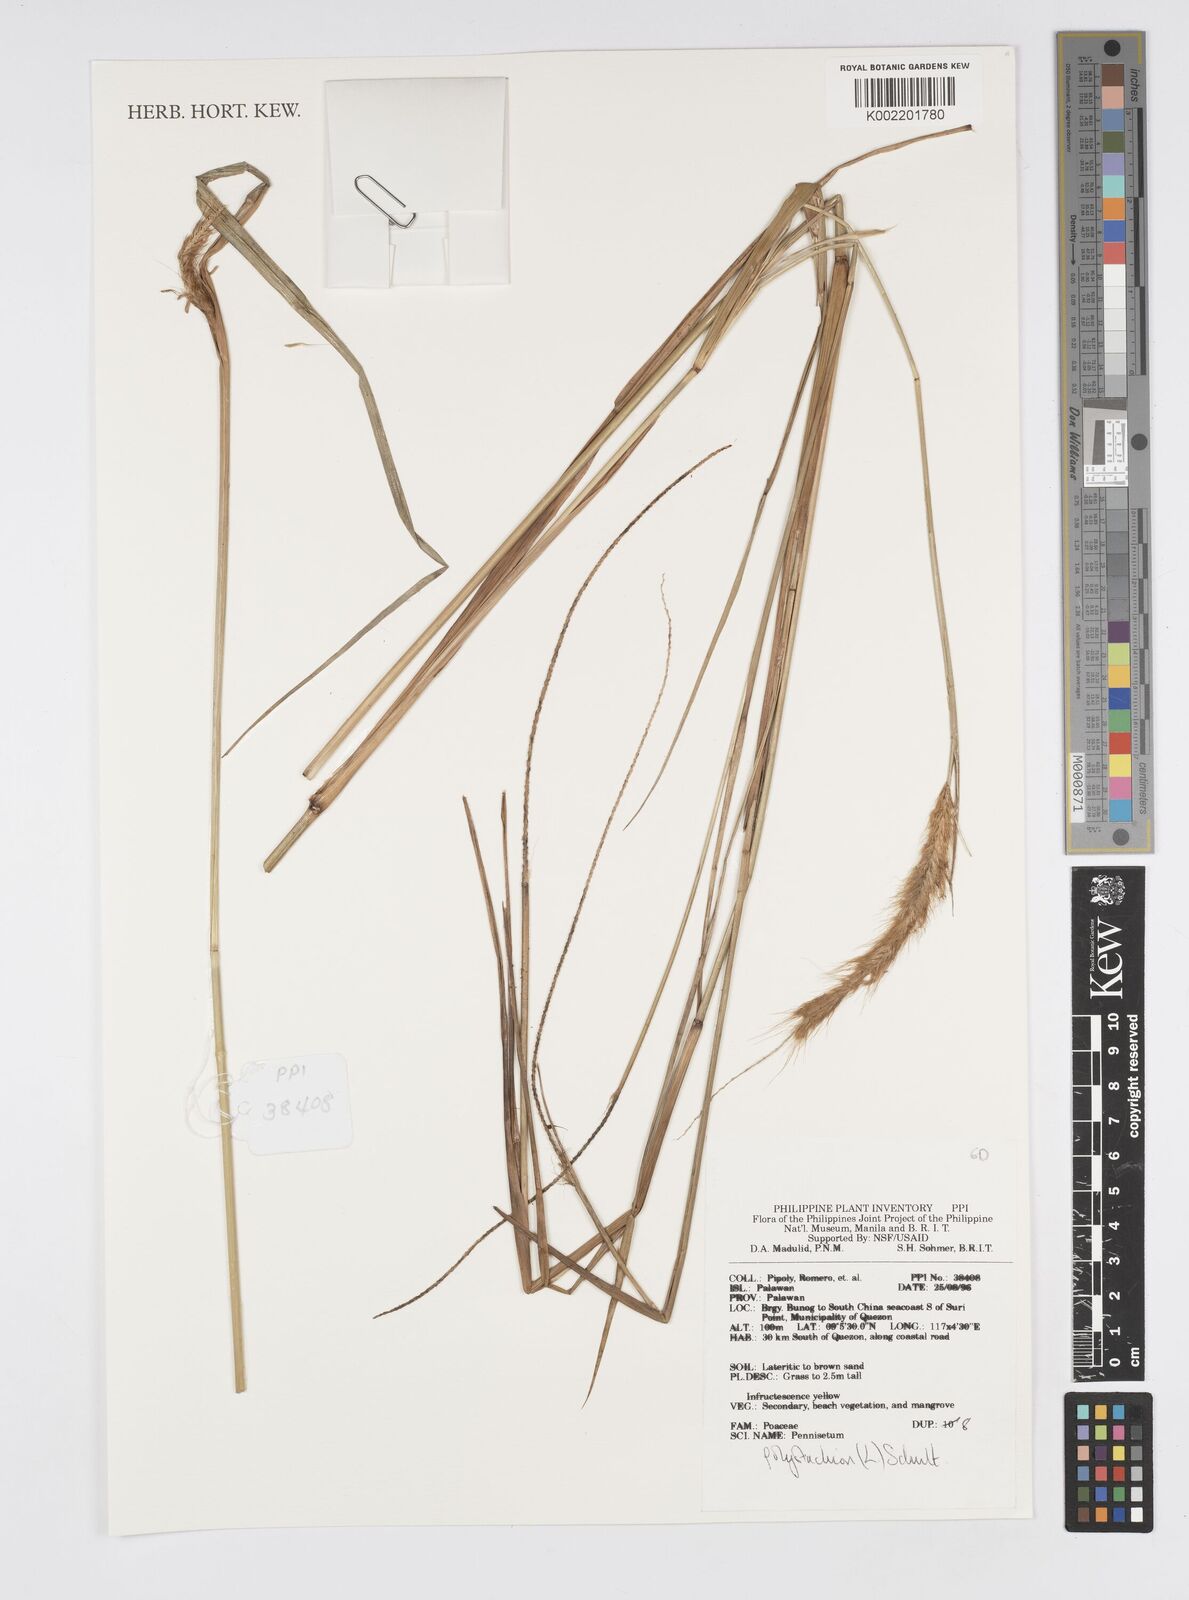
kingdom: Plantae
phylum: Tracheophyta
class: Liliopsida
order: Poales
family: Poaceae
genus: Setaria
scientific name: Setaria parviflora
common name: Knotroot bristle-grass
